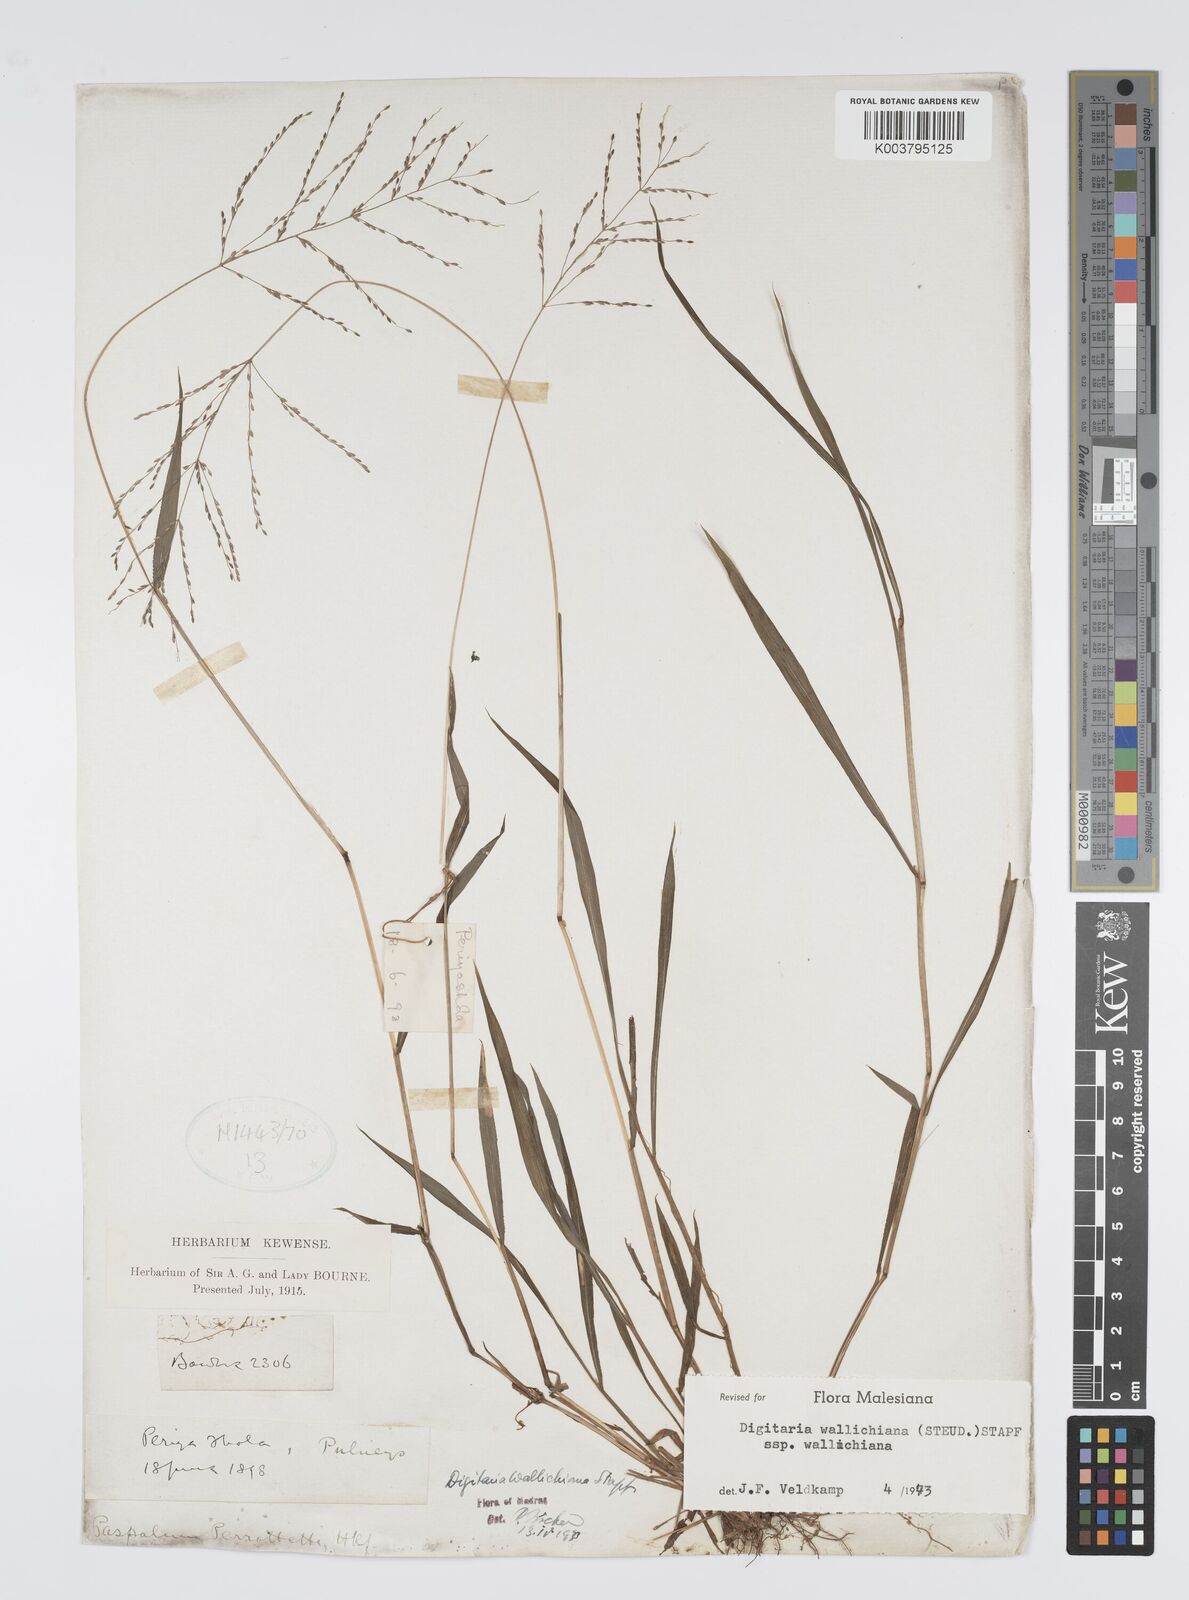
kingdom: Plantae
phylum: Tracheophyta
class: Liliopsida
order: Poales
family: Poaceae
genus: Digitaria
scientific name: Digitaria wallichiana
